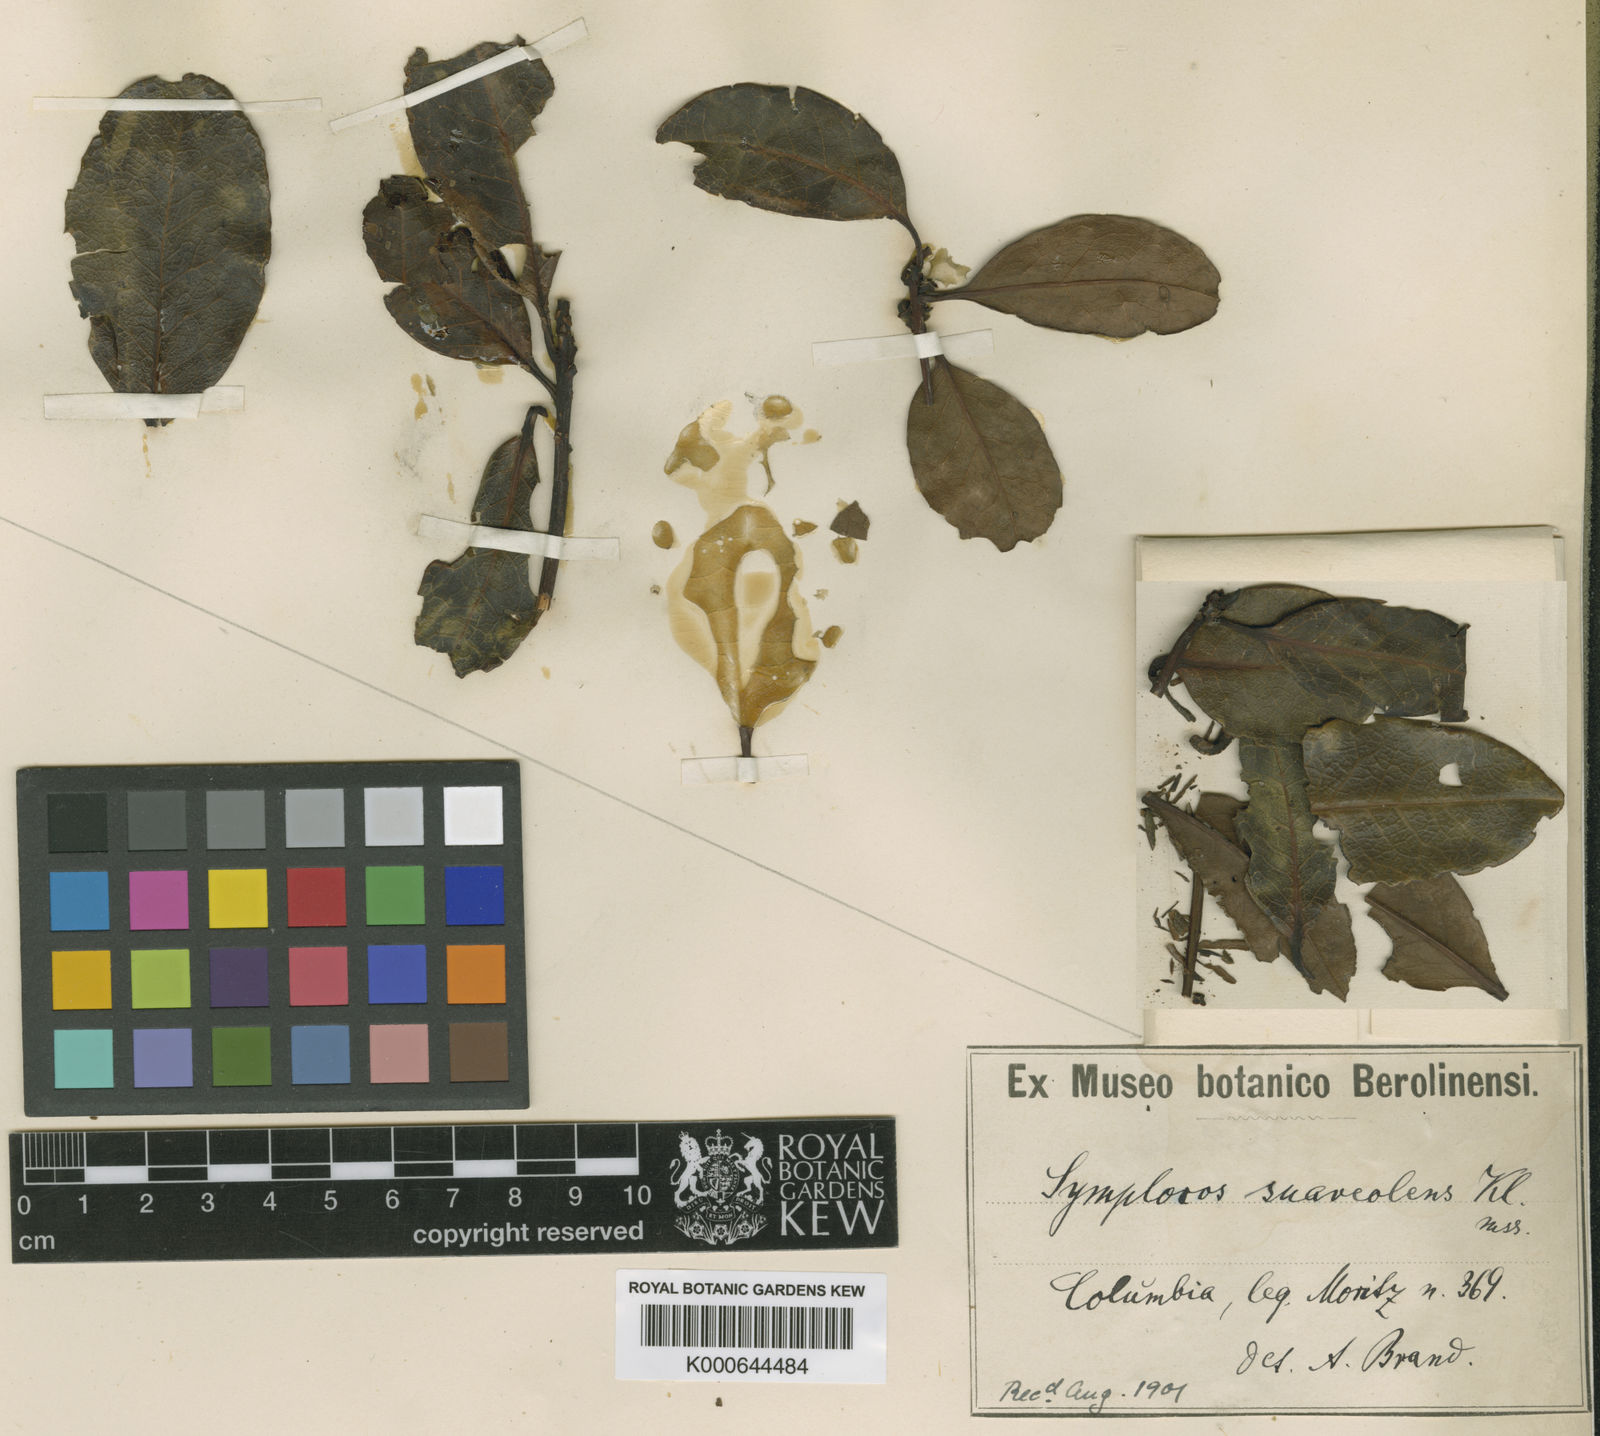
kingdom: Plantae
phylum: Tracheophyta
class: Magnoliopsida
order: Ericales
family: Symplocaceae
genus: Symplocos
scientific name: Symplocos
